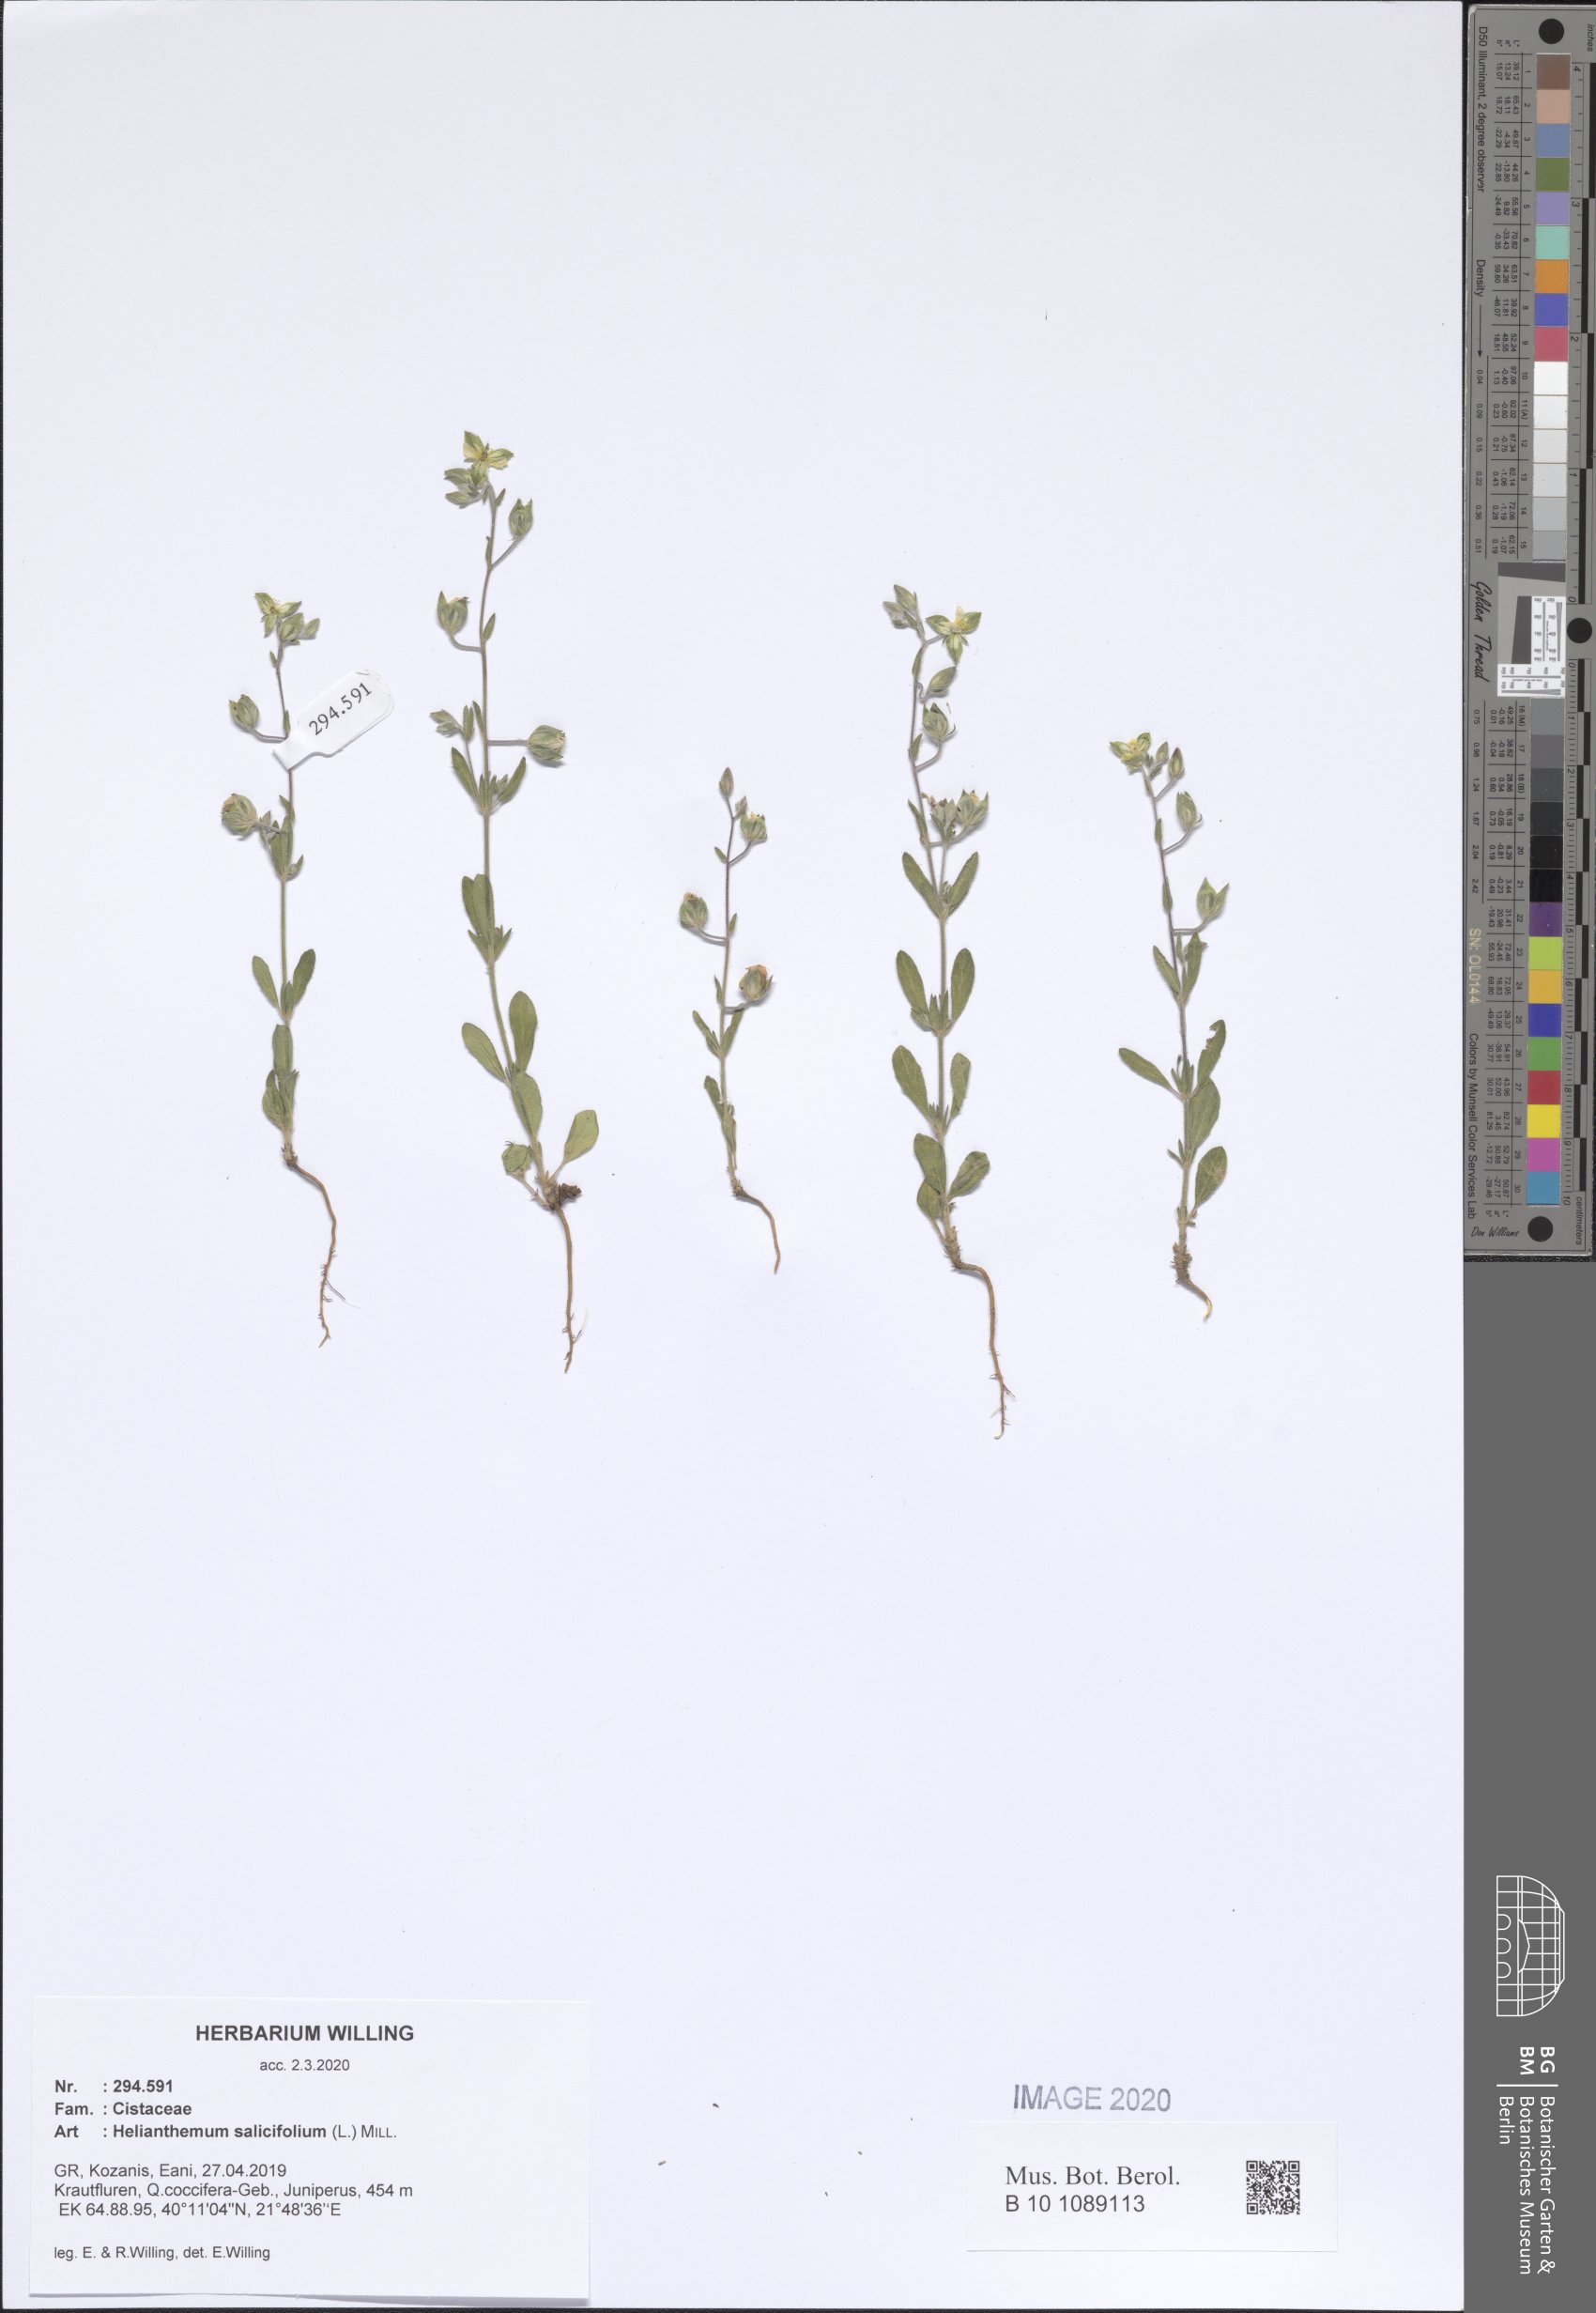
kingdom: Plantae
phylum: Tracheophyta
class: Magnoliopsida
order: Malvales
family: Cistaceae
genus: Helianthemum
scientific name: Helianthemum salicifolium
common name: Willowleaf frostweed
